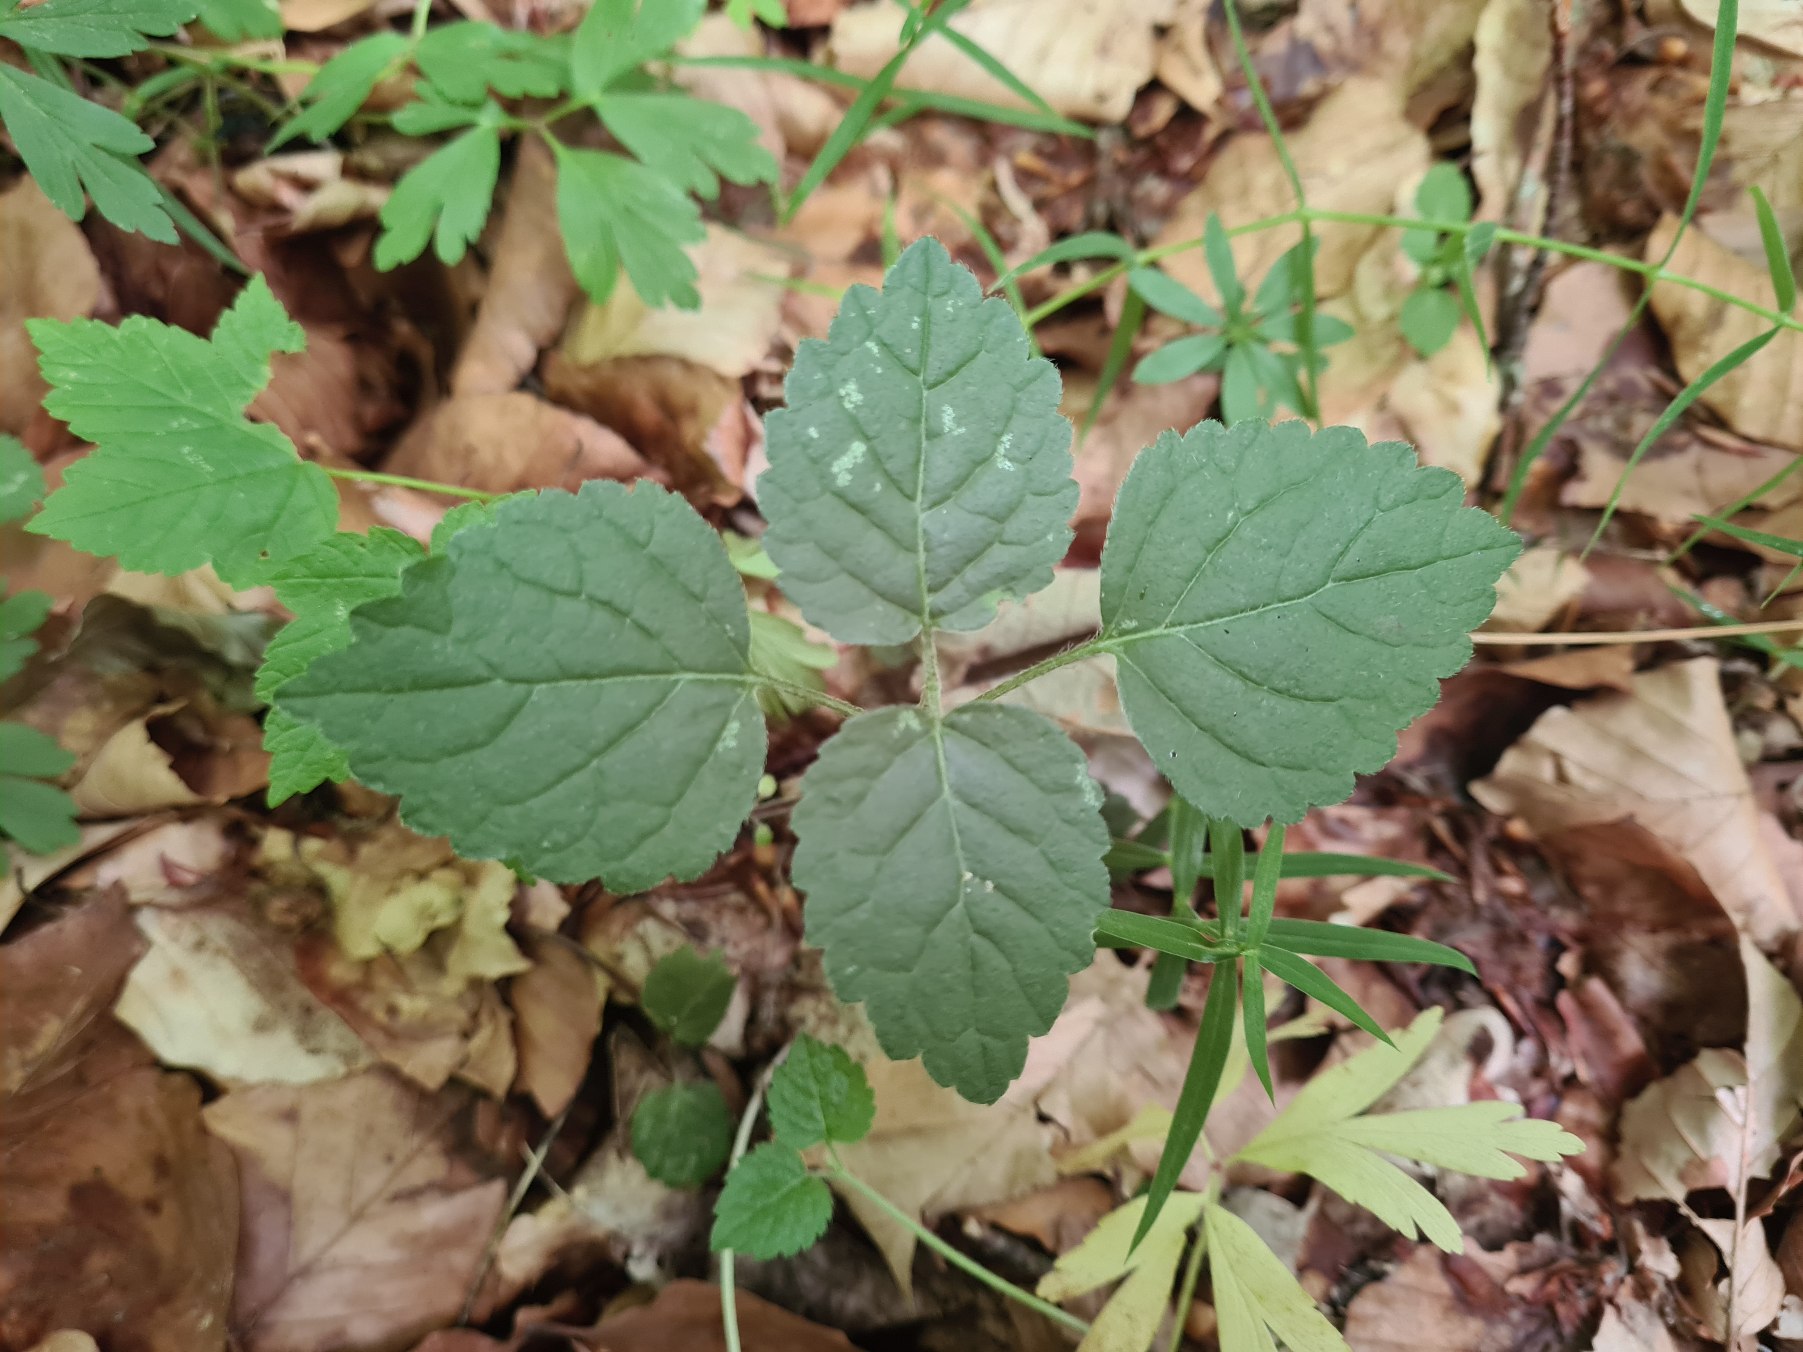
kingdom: Plantae
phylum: Tracheophyta
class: Magnoliopsida
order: Lamiales
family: Lamiaceae
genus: Lamium
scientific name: Lamium galeobdolon
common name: Almindelig guldnælde
